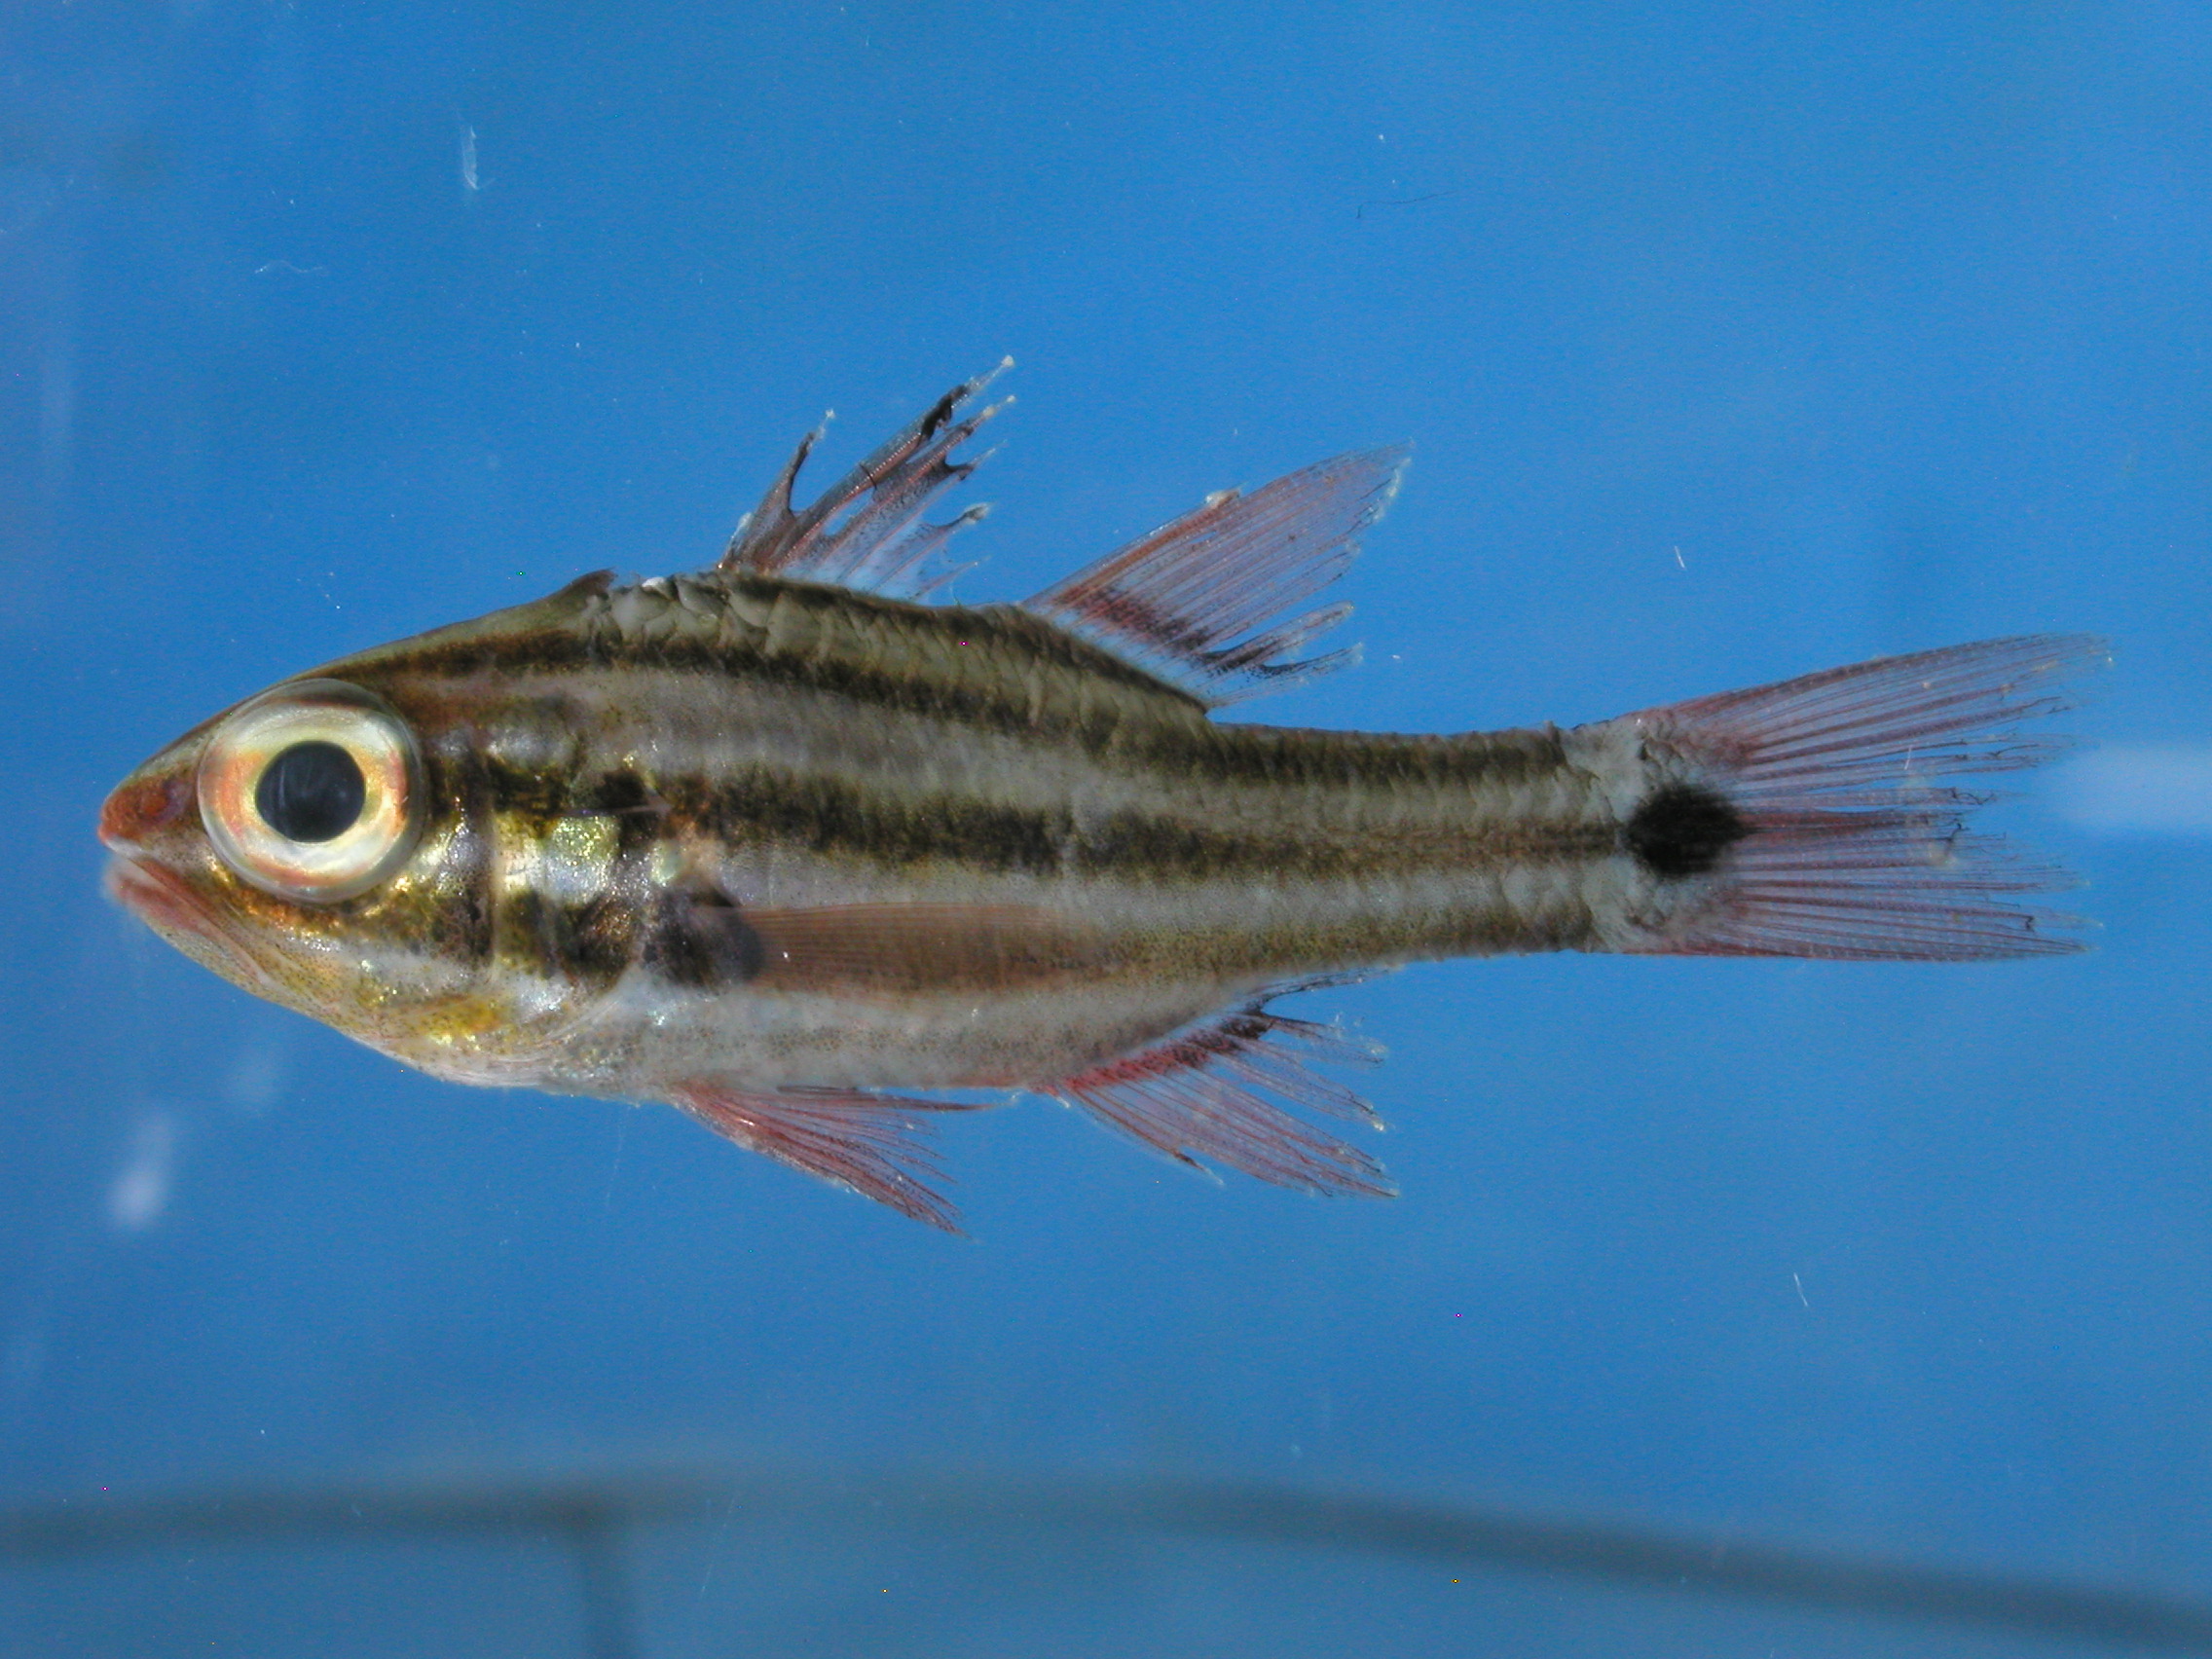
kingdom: Animalia
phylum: Chordata
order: Perciformes
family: Apogonidae
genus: Ostorhinchus
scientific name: Ostorhinchus cookii
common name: Cook's cardinalfish
